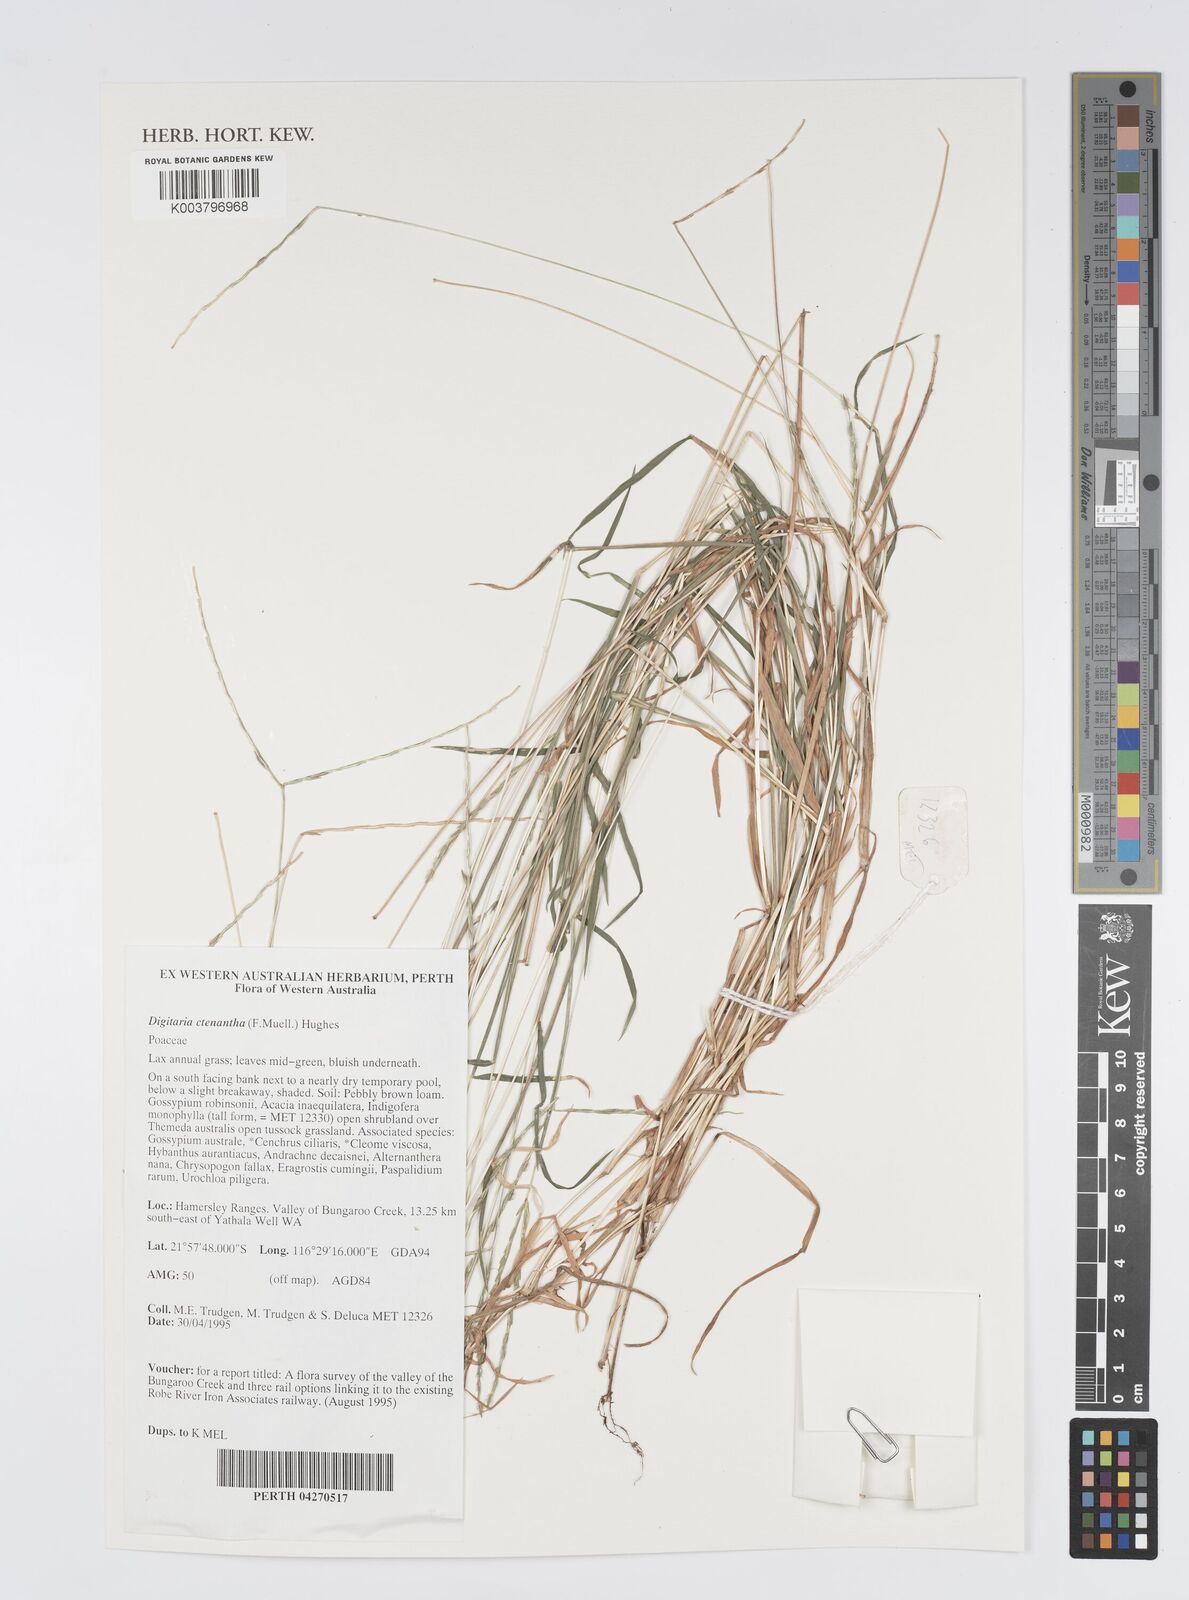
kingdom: Plantae
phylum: Tracheophyta
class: Liliopsida
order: Poales
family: Poaceae
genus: Digitaria
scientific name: Digitaria ctenantha
